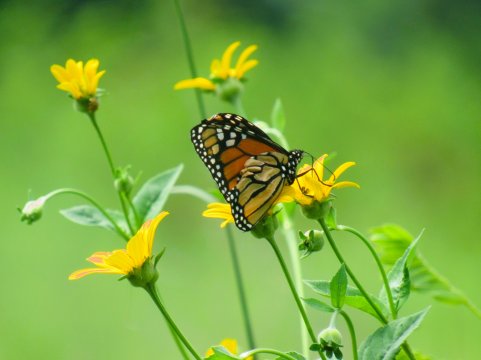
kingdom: Animalia
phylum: Arthropoda
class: Insecta
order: Lepidoptera
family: Nymphalidae
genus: Danaus
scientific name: Danaus plexippus
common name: Monarch
